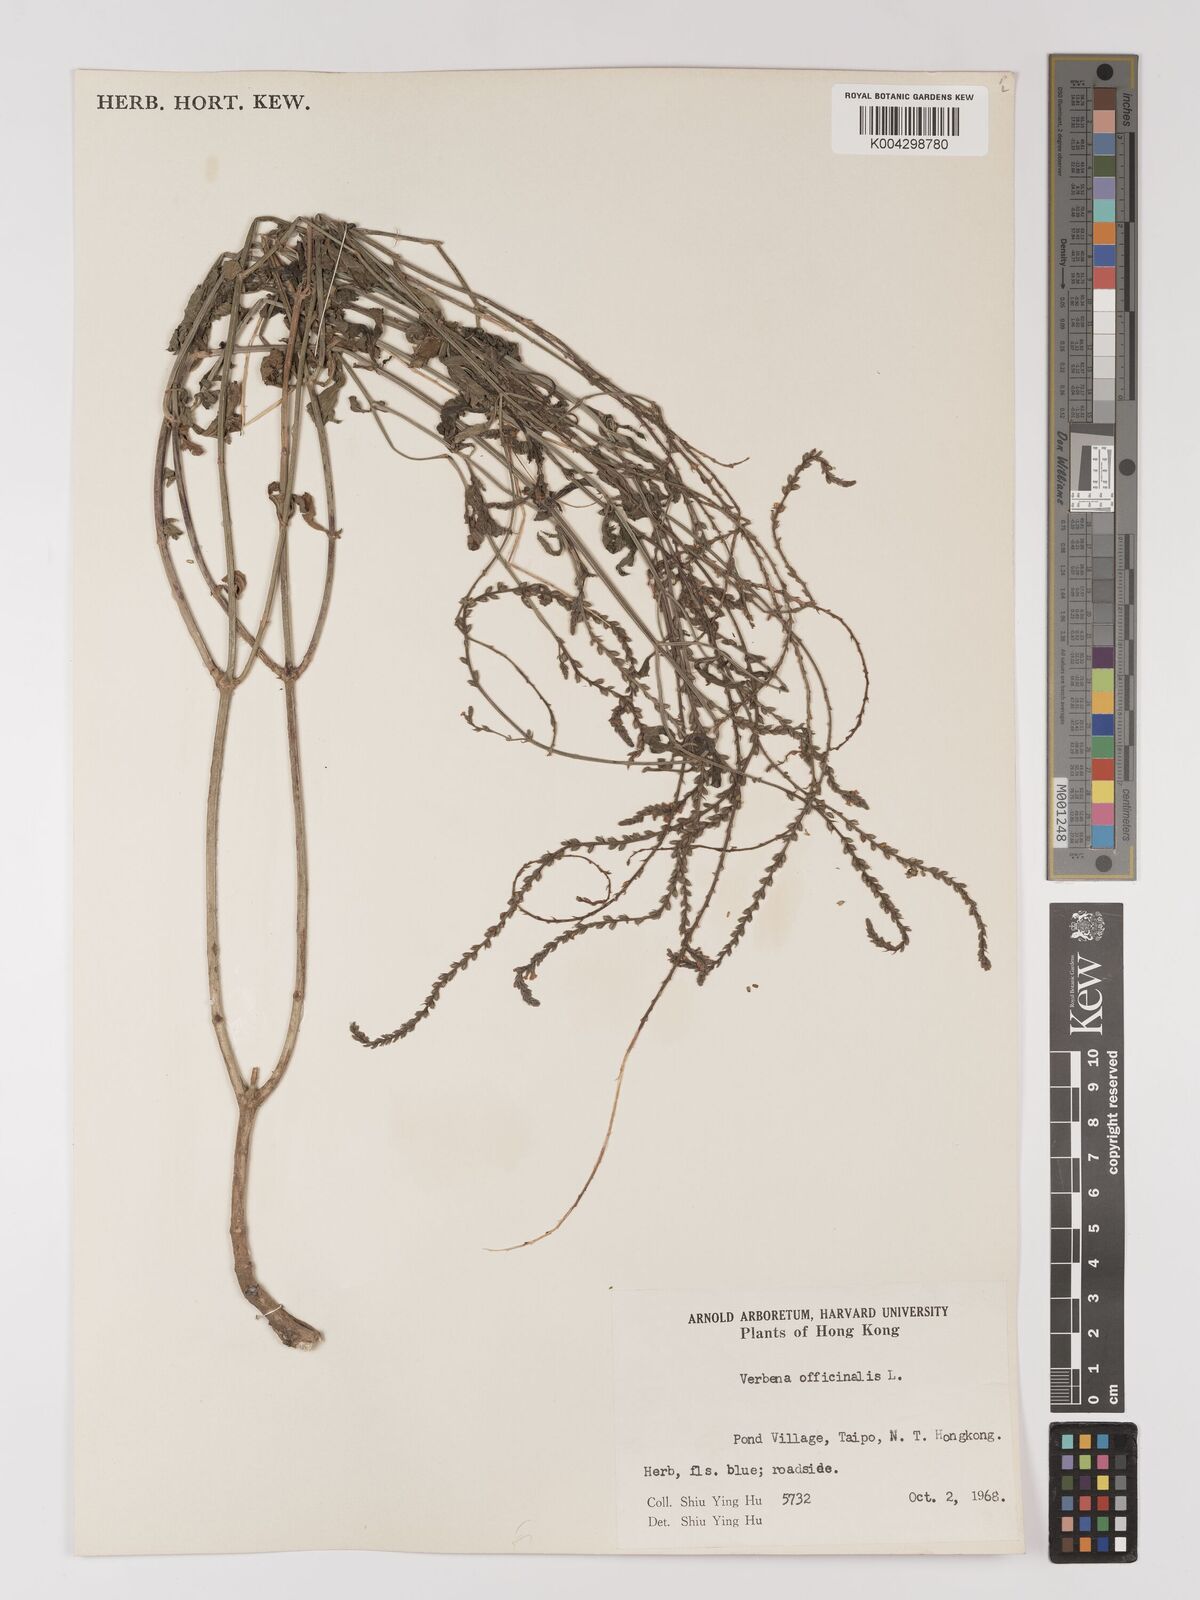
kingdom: Plantae
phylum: Tracheophyta
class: Magnoliopsida
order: Lamiales
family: Verbenaceae
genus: Verbena
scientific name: Verbena officinalis
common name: Vervain
